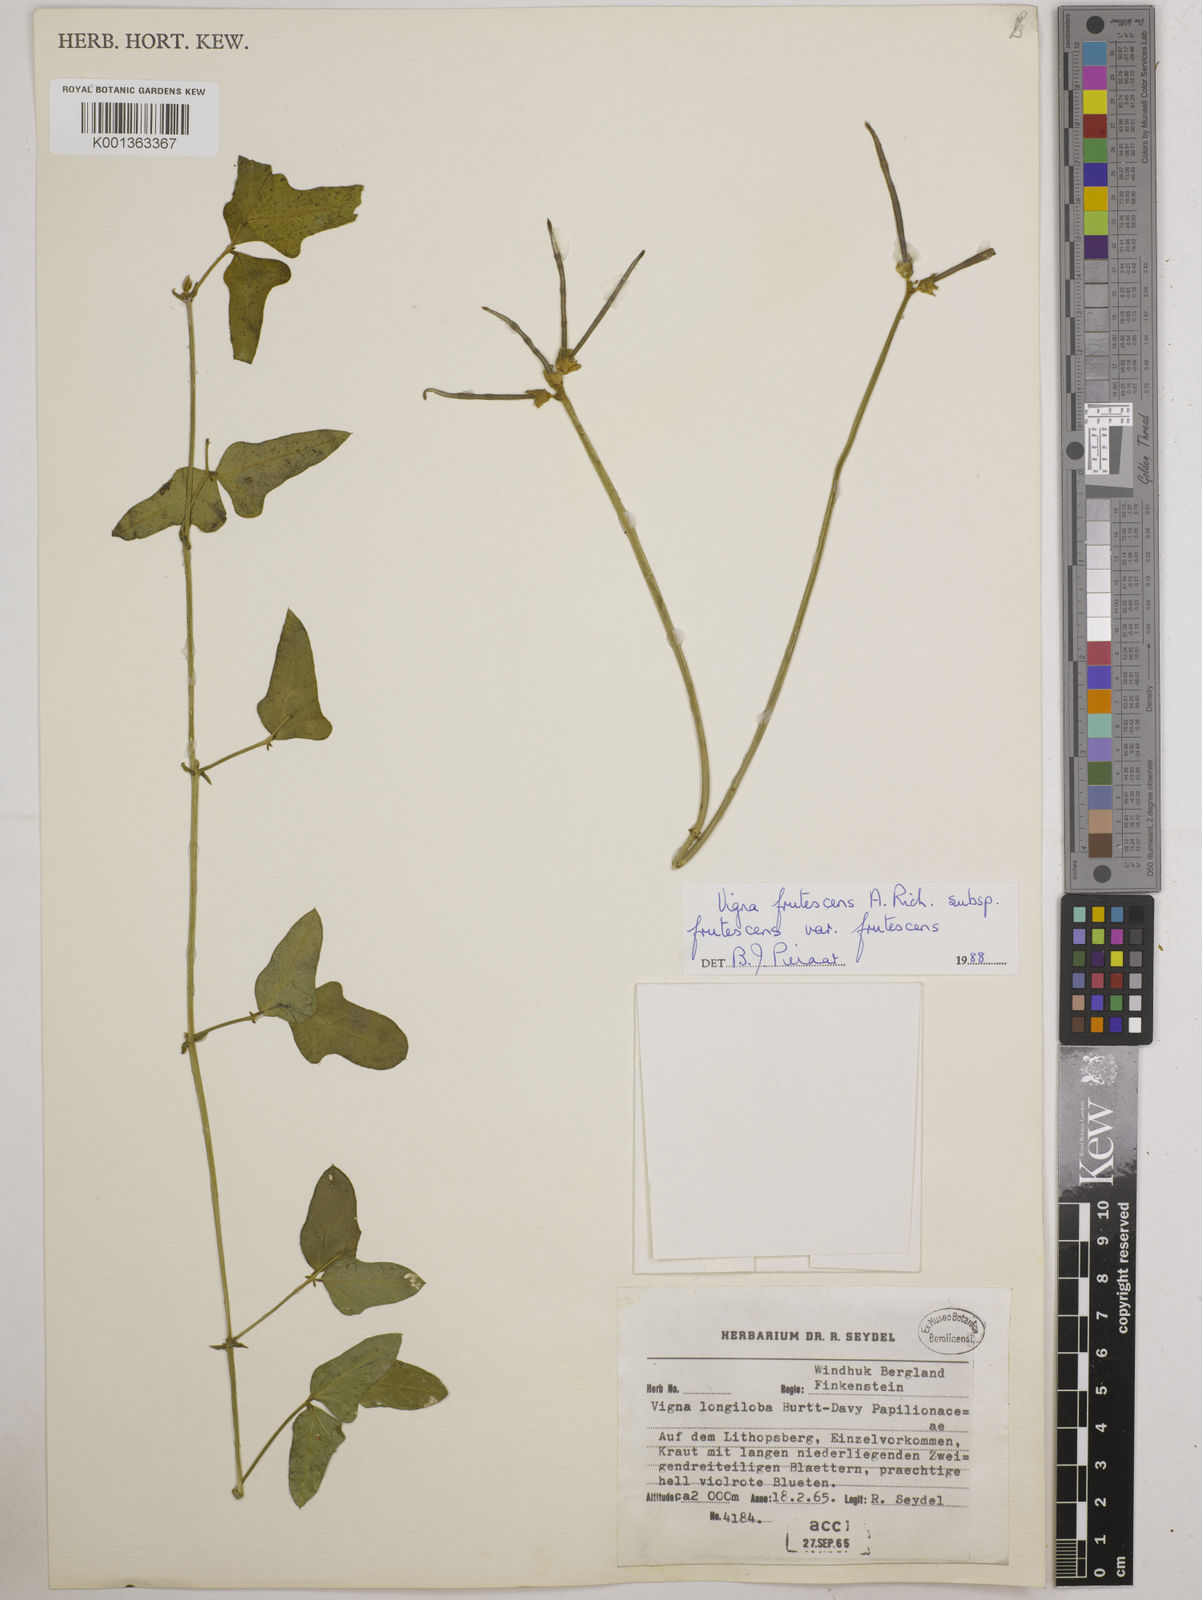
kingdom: Plantae
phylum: Tracheophyta
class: Magnoliopsida
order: Fabales
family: Fabaceae
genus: Vigna
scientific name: Vigna frutescens
